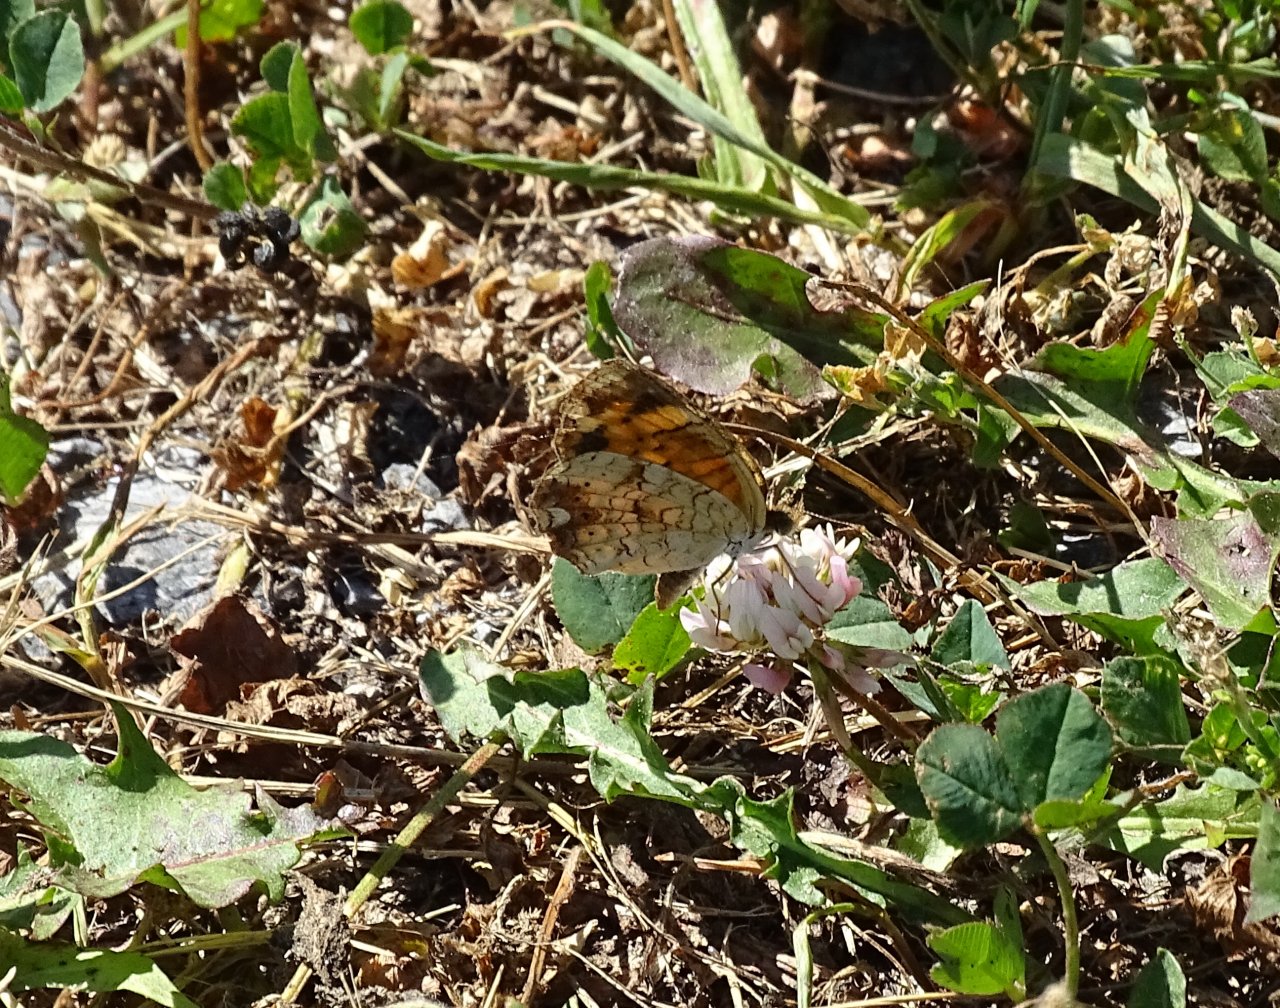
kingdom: Animalia
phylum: Arthropoda
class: Insecta
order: Lepidoptera
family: Nymphalidae
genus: Phyciodes
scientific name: Phyciodes tharos
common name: Pearl Crescent
